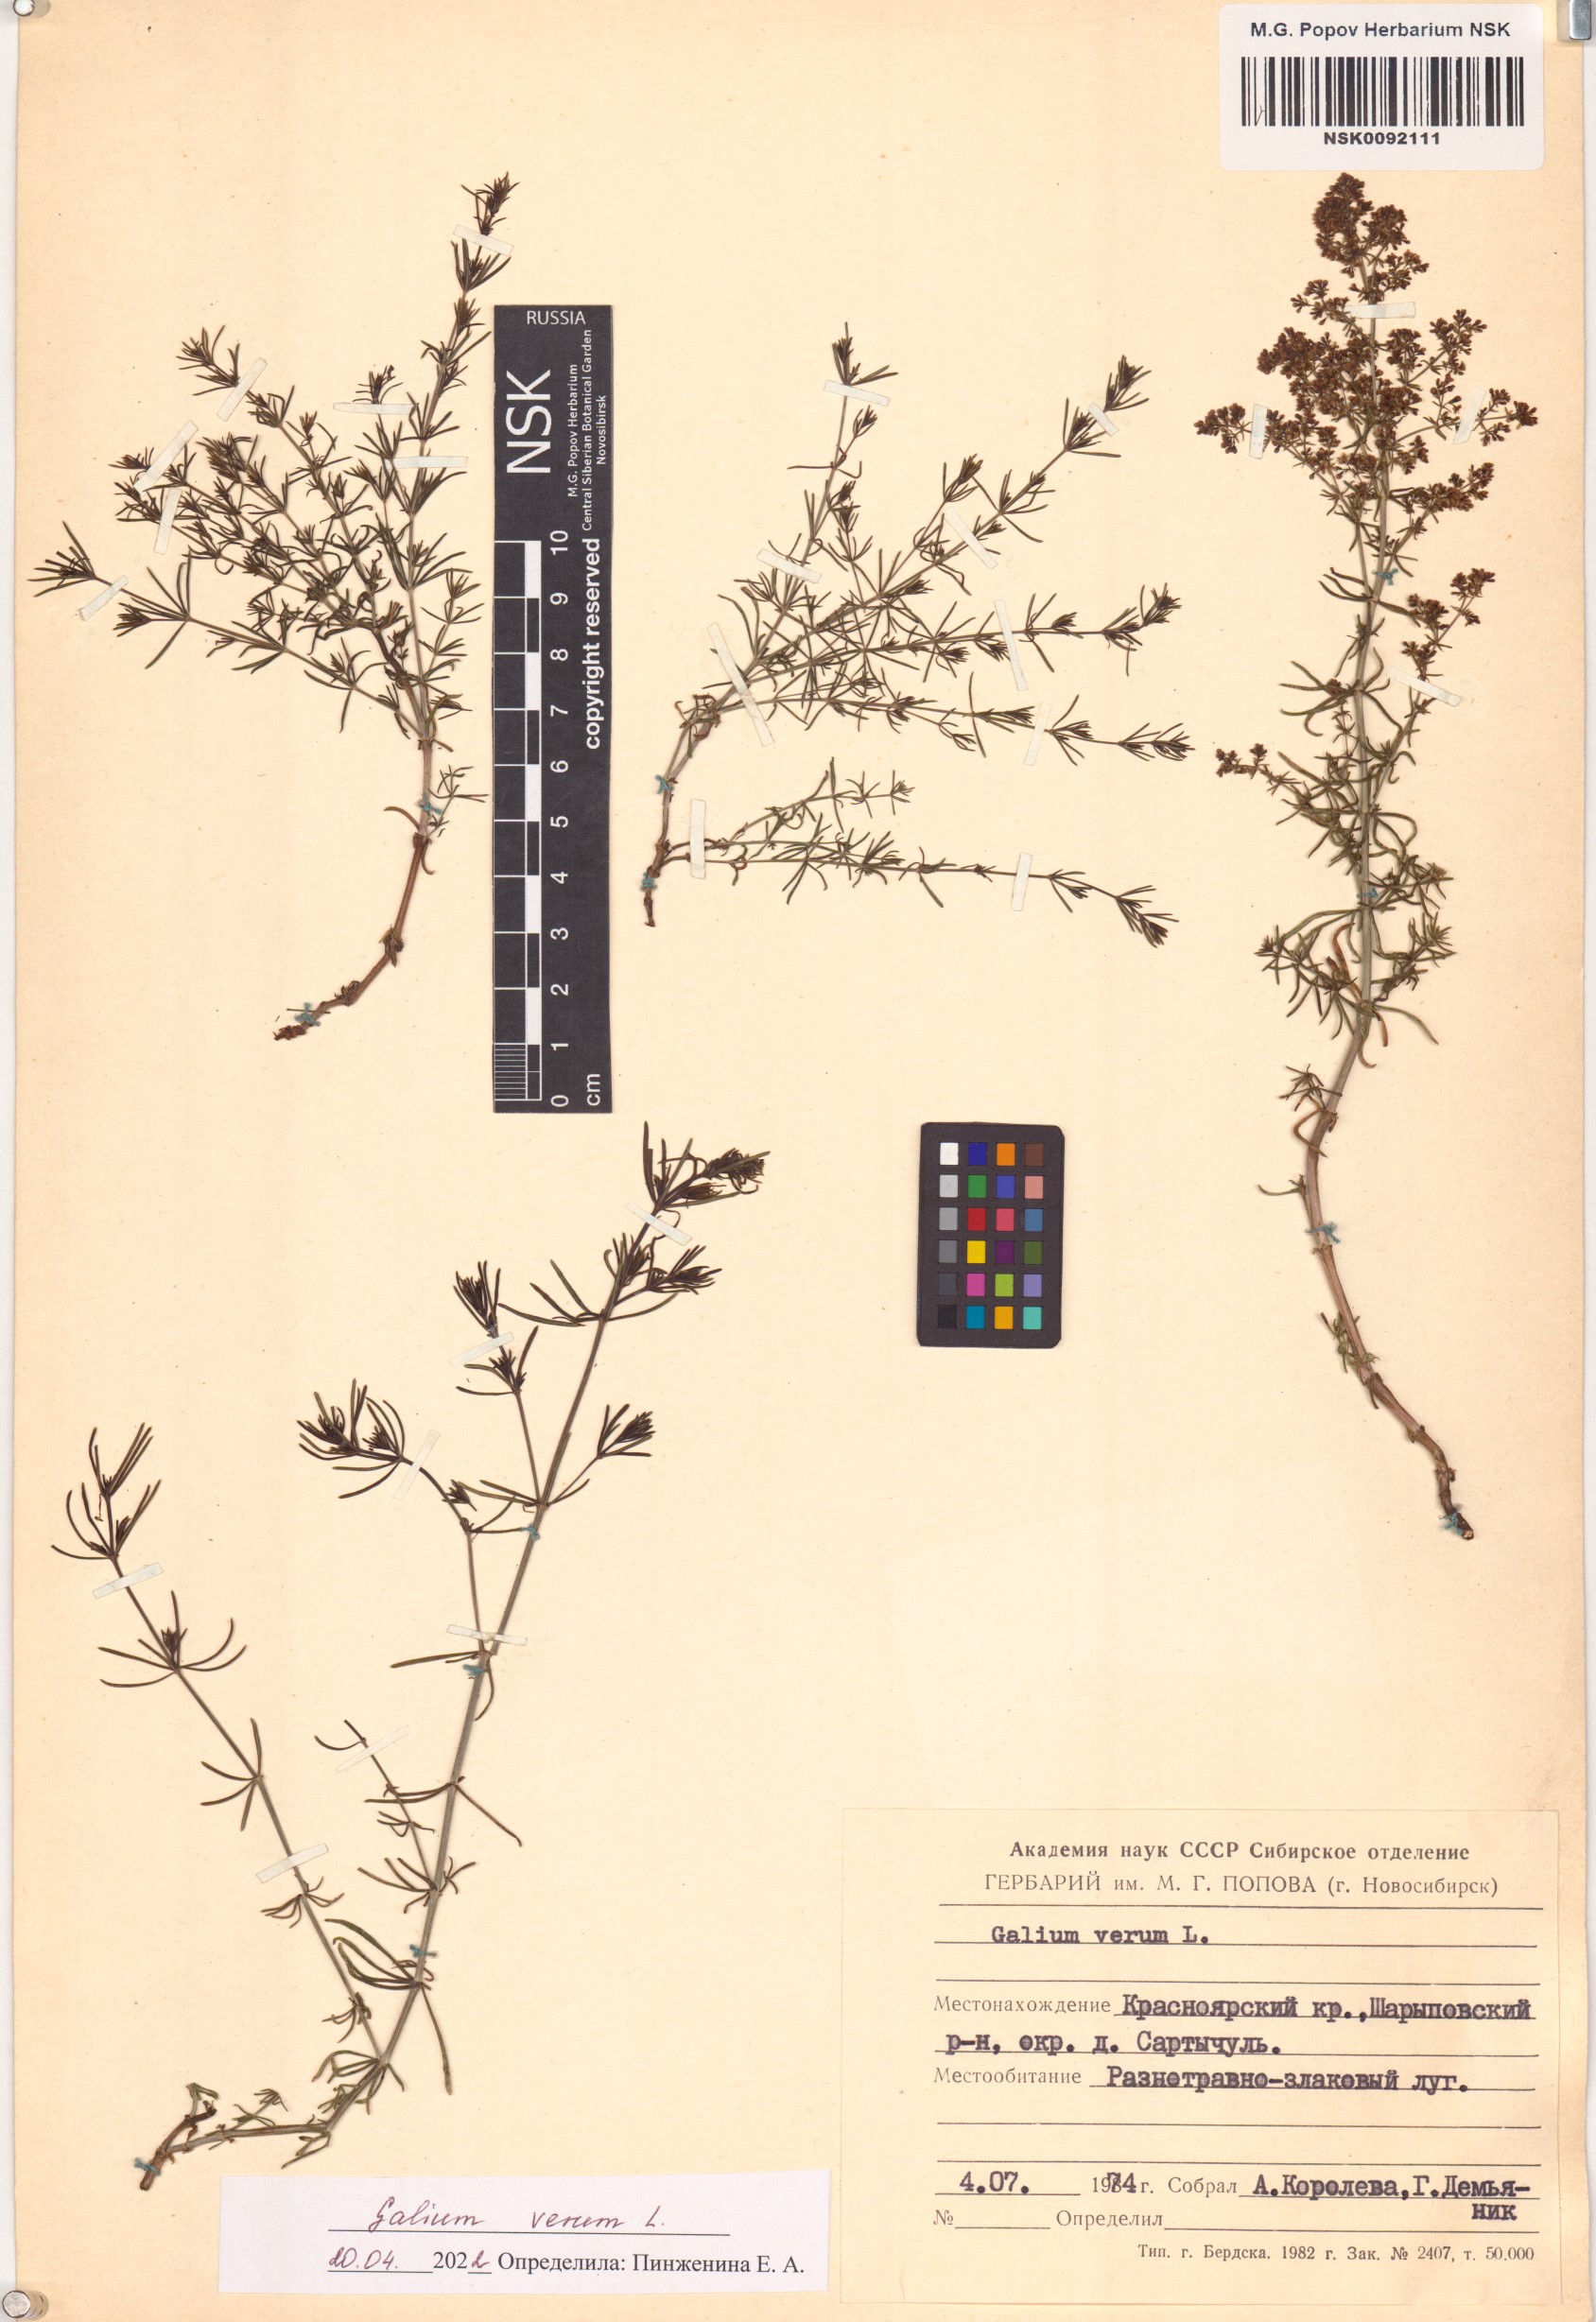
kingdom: Plantae
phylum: Tracheophyta
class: Magnoliopsida
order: Gentianales
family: Rubiaceae
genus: Galium
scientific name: Galium verum
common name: Lady's bedstraw
